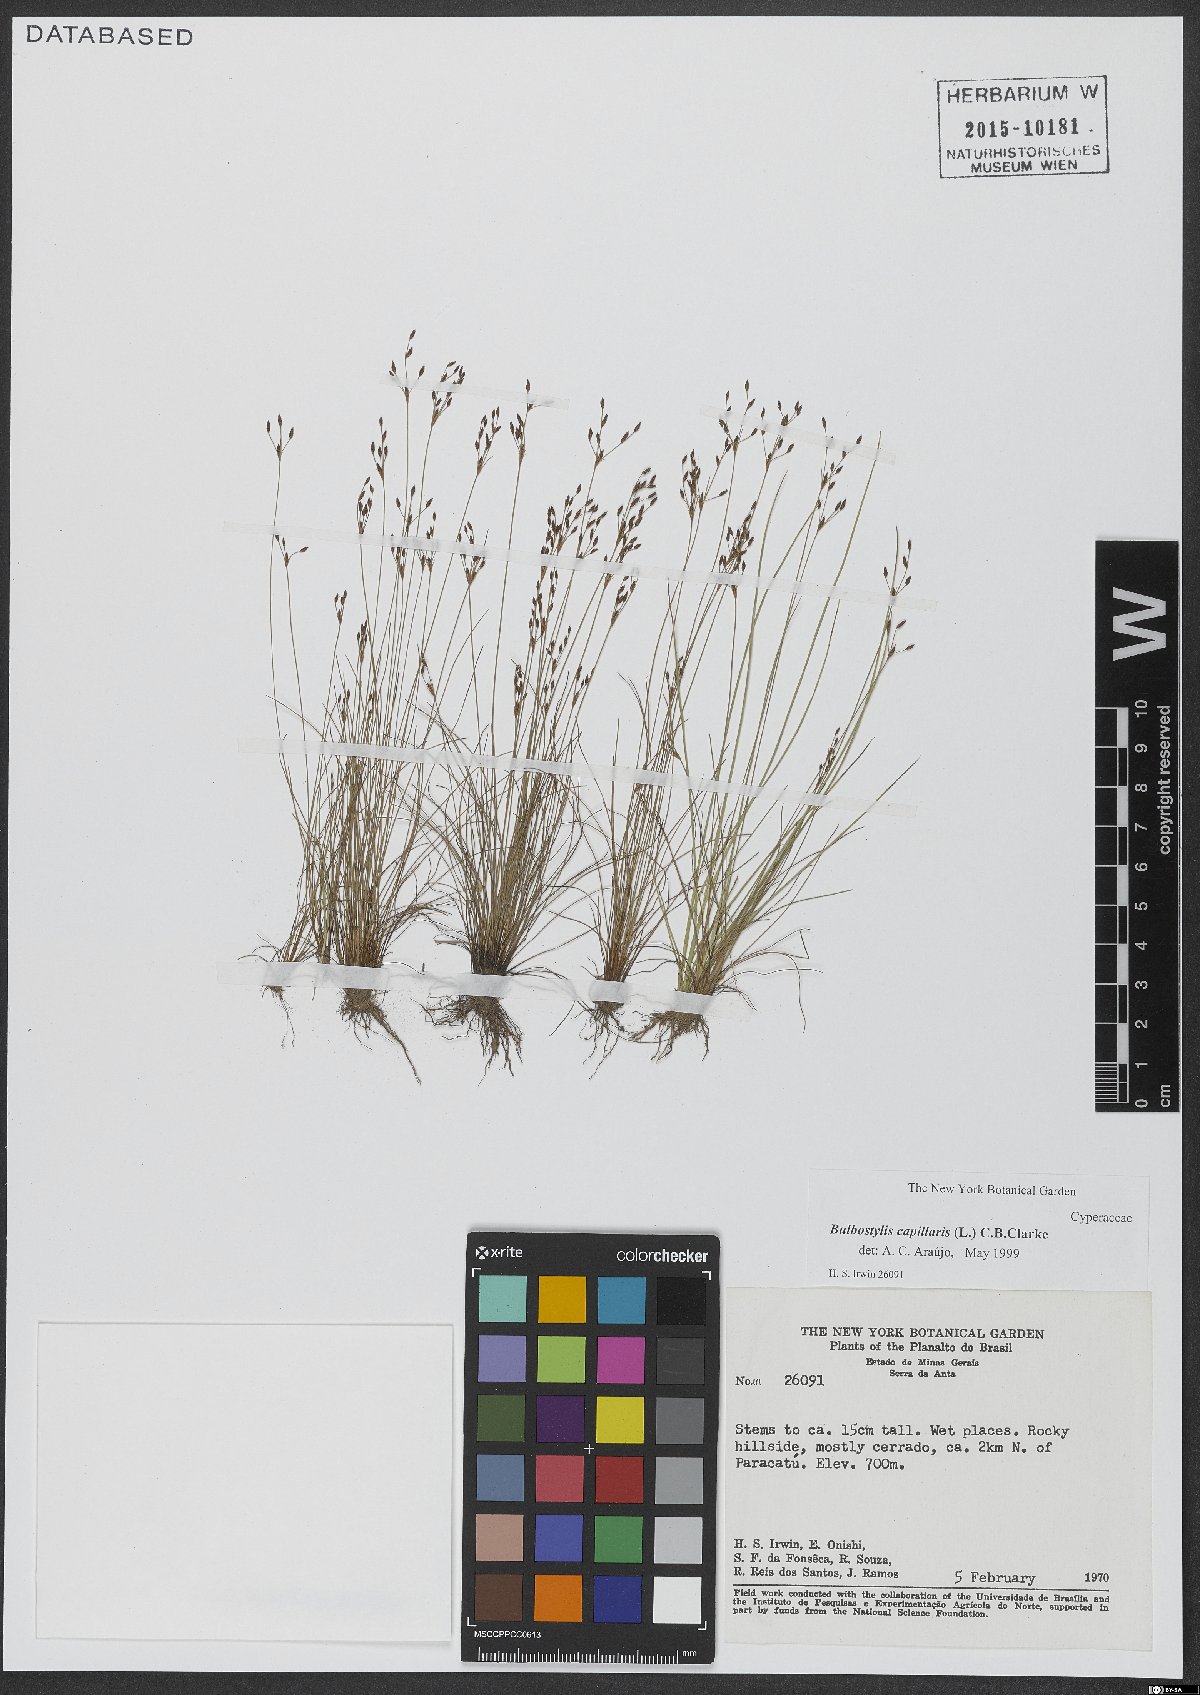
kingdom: Plantae
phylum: Tracheophyta
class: Liliopsida
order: Poales
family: Cyperaceae
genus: Bulbostylis
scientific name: Bulbostylis capillaris
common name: Densetuft hairsedge
